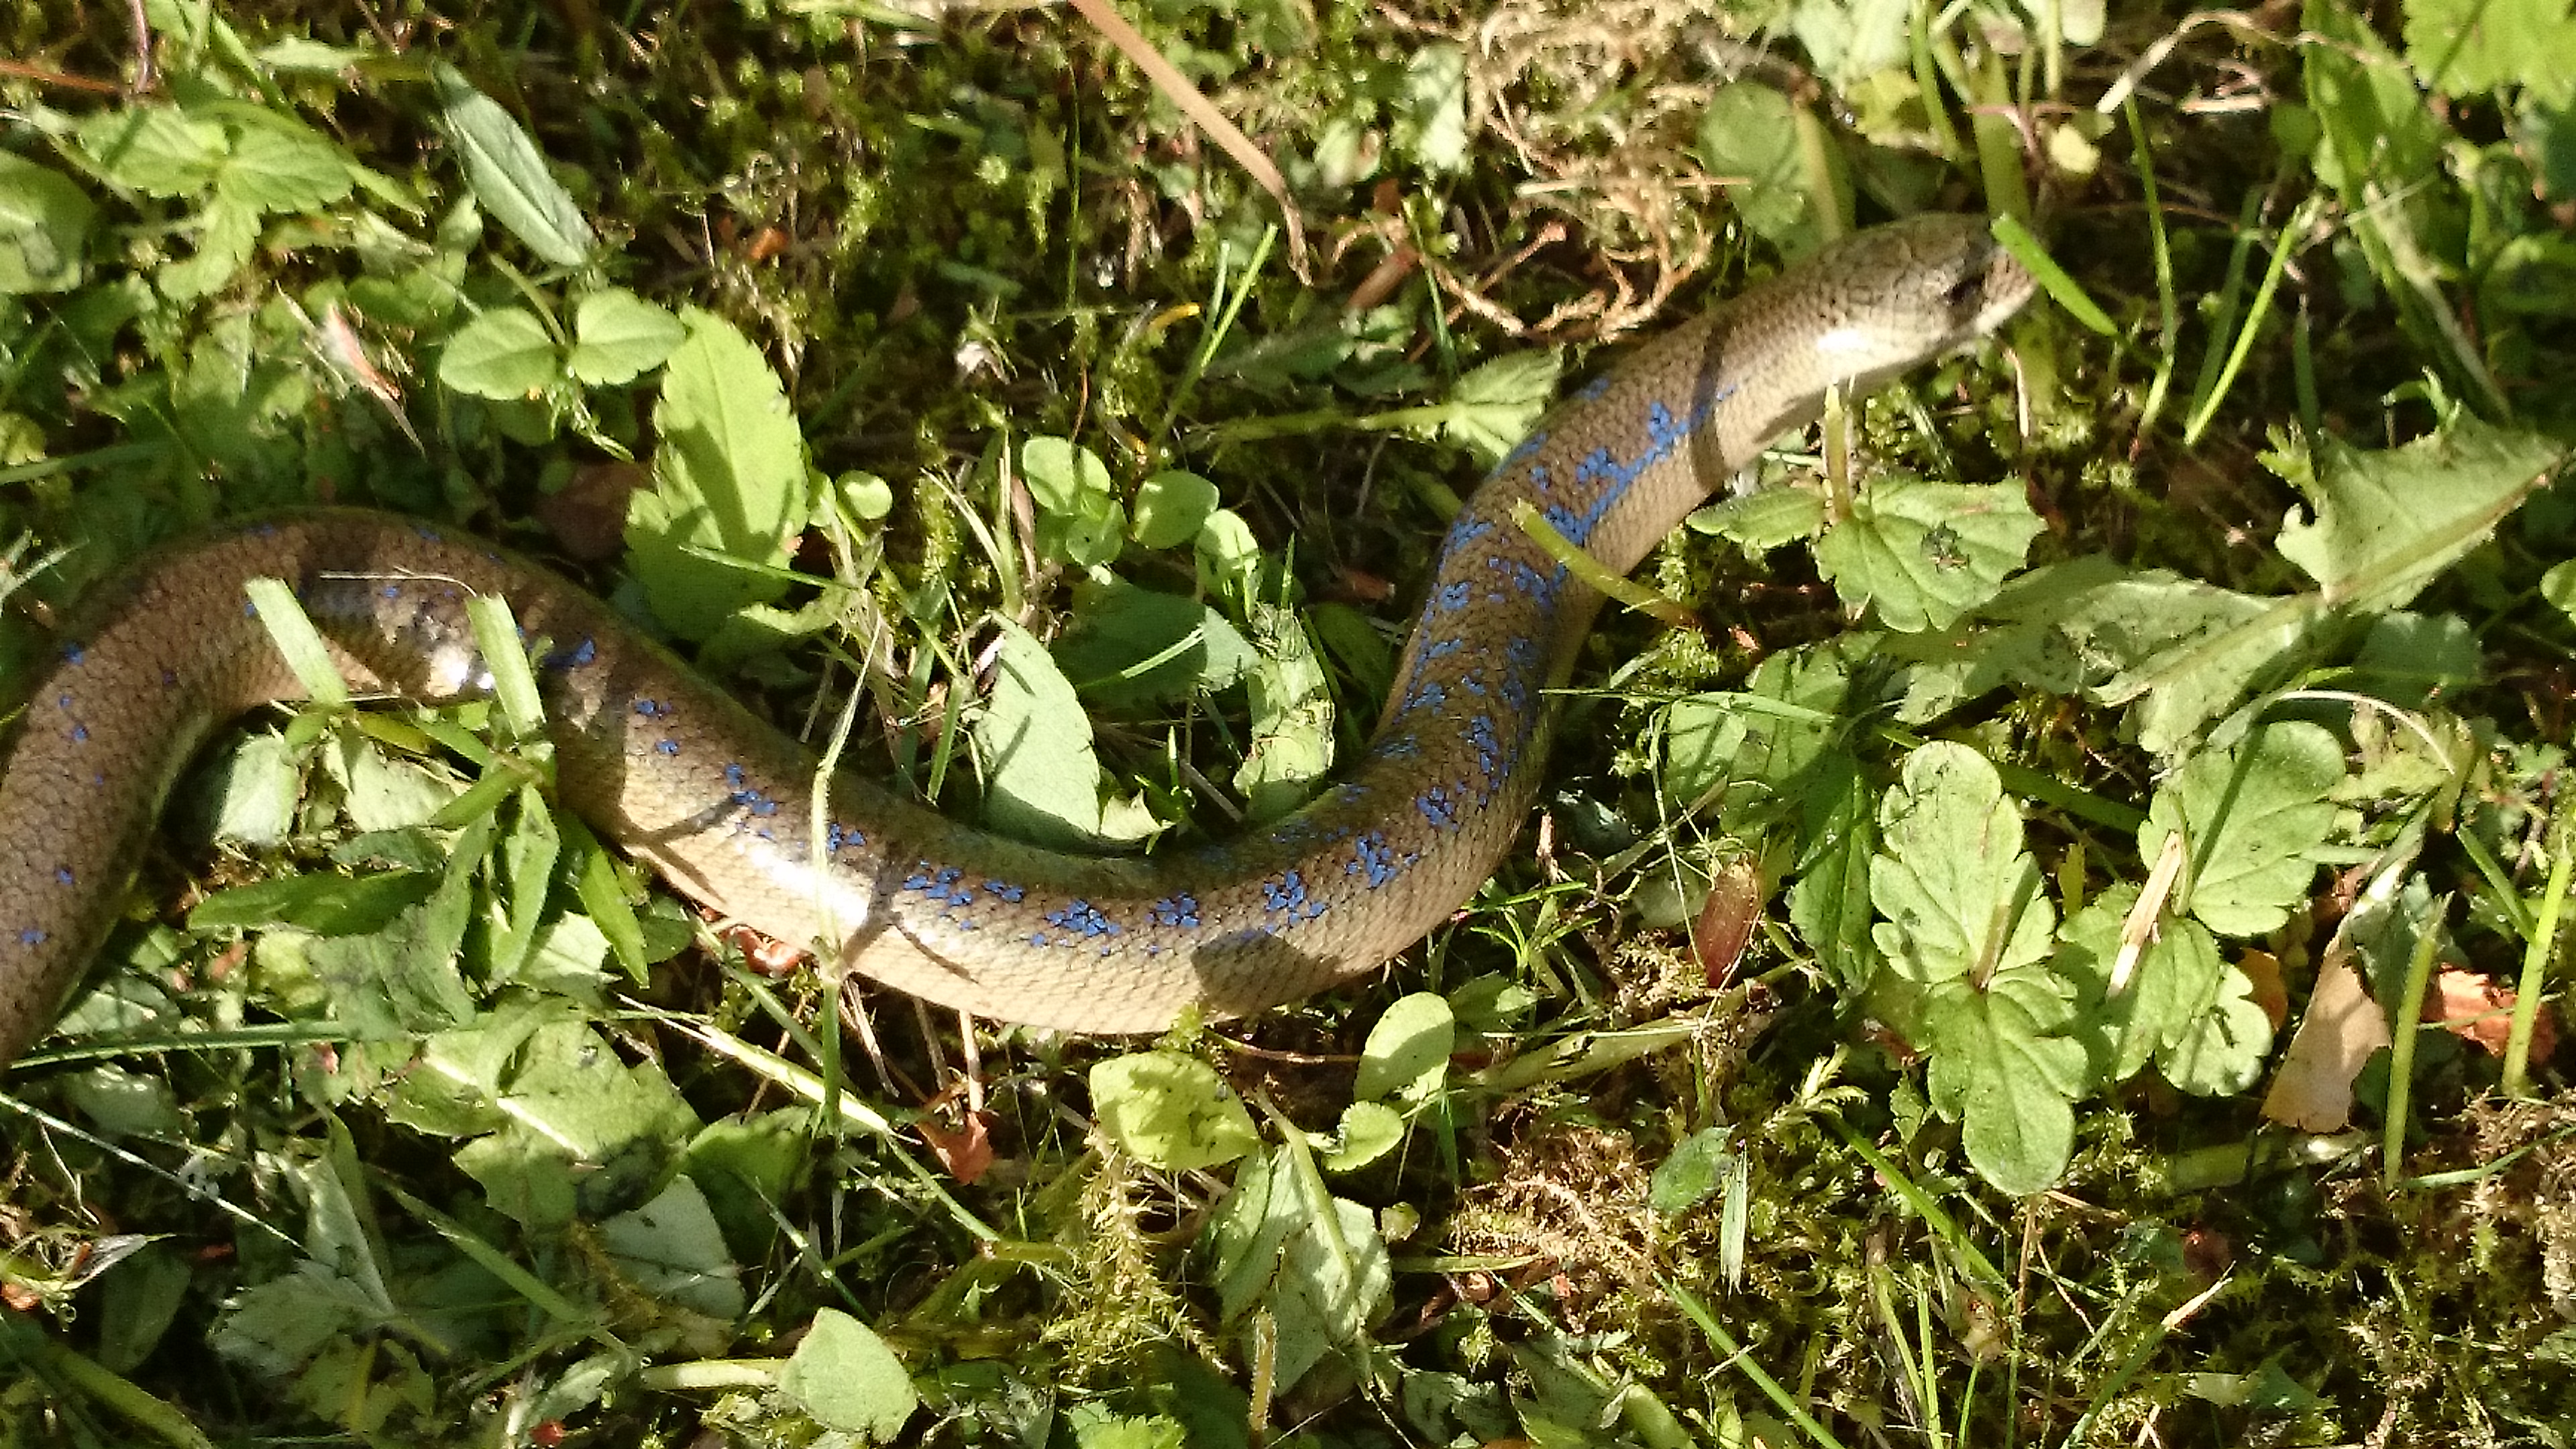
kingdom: Animalia
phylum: Chordata
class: Squamata
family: Anguidae
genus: Anguis
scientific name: Anguis colchica
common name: Slow worm
